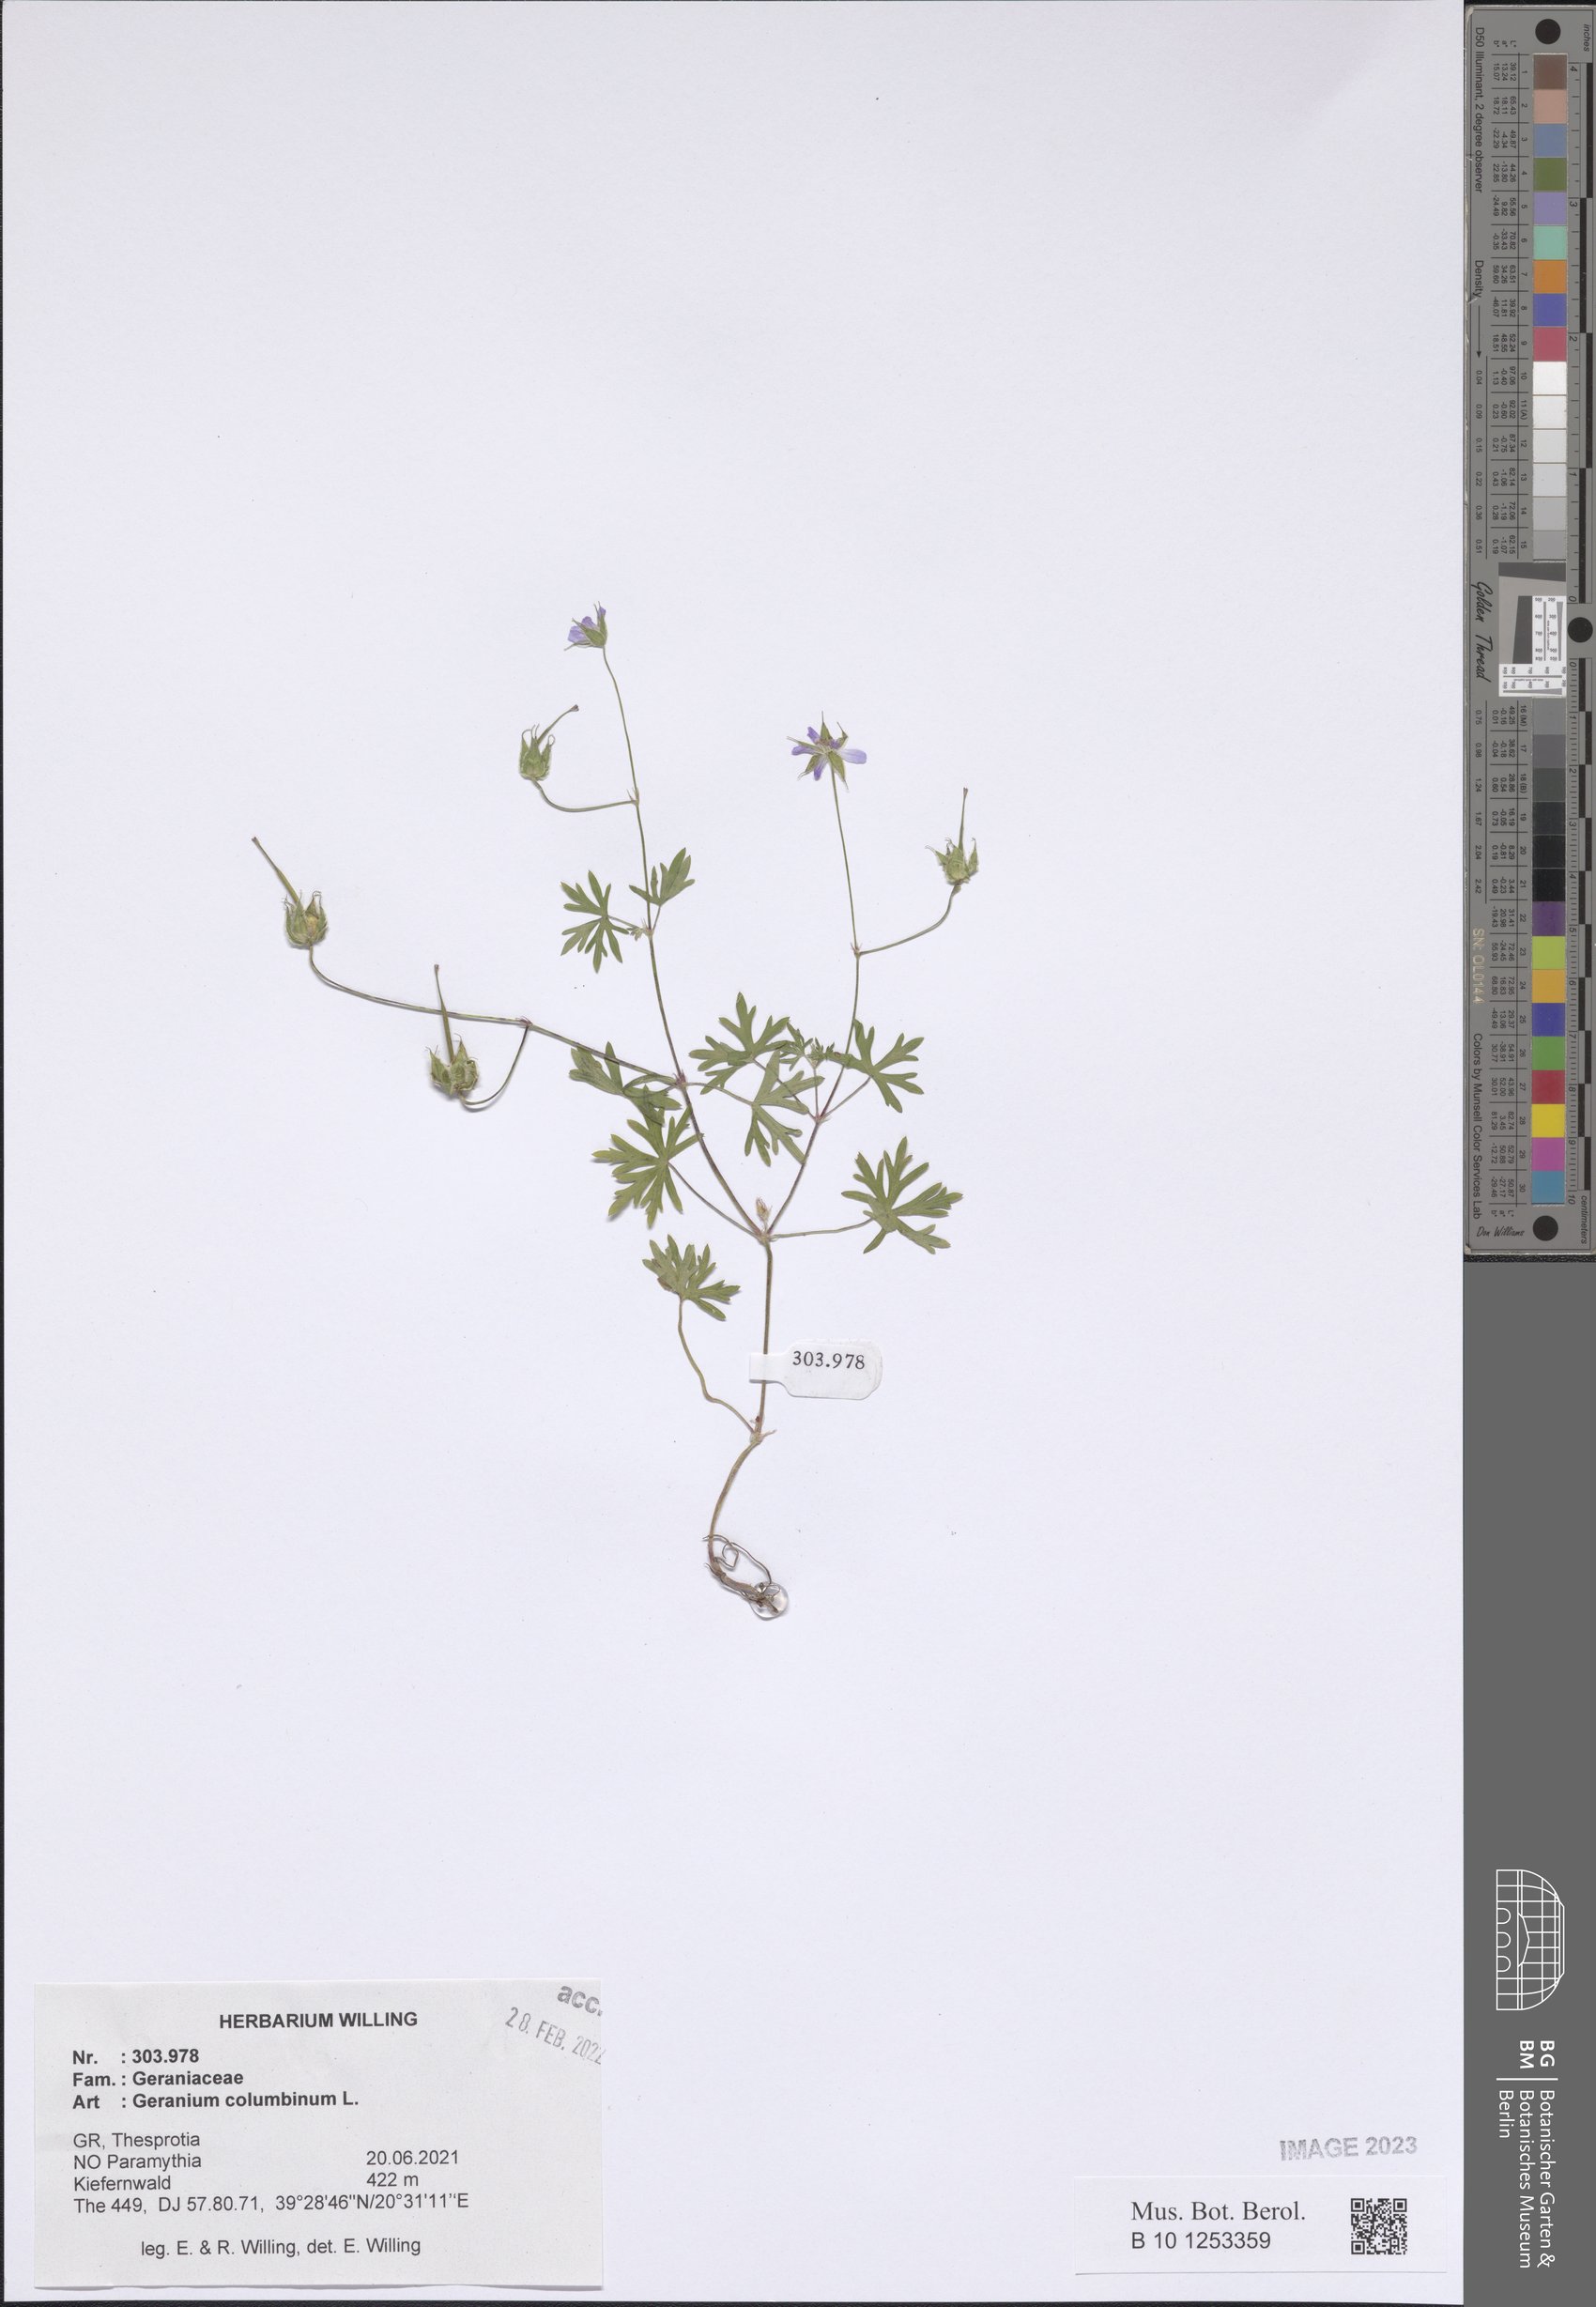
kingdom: Plantae
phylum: Tracheophyta
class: Magnoliopsida
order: Geraniales
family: Geraniaceae
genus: Geranium
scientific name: Geranium columbinum
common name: Long-stalked crane's-bill
